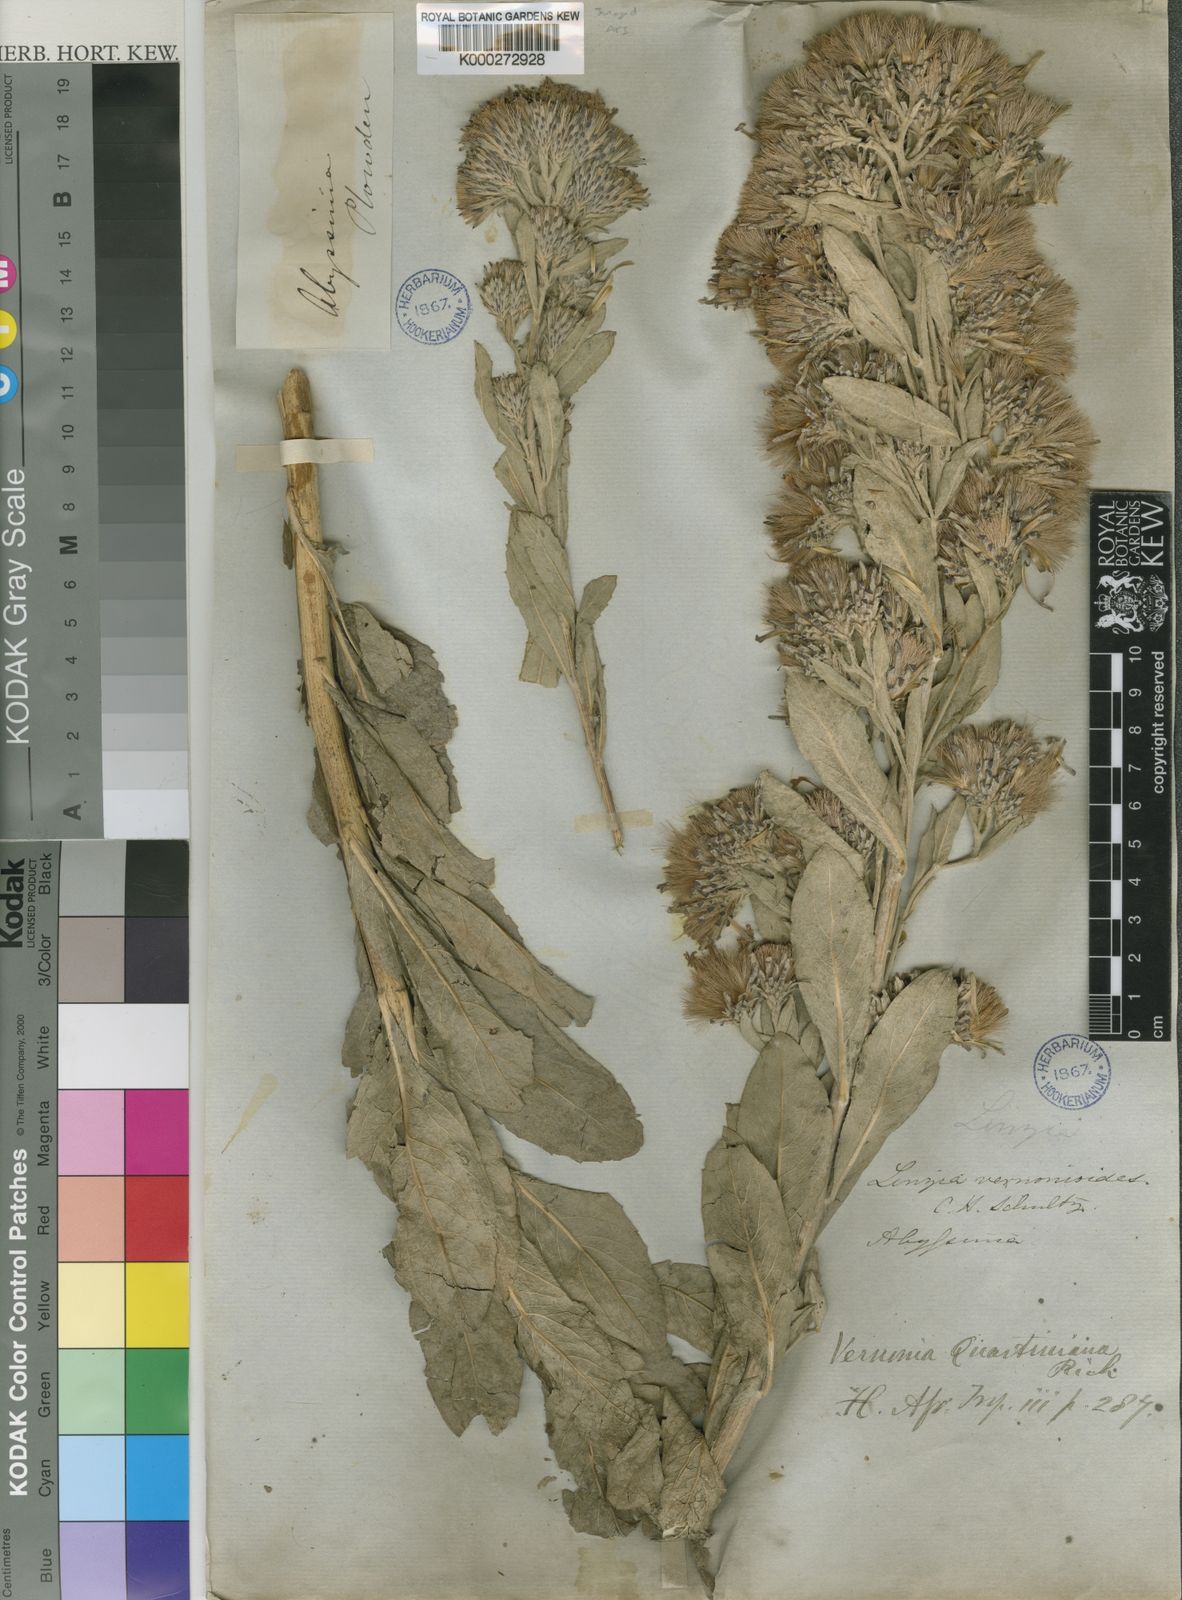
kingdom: Plantae
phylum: Tracheophyta
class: Magnoliopsida
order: Asterales
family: Asteraceae
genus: Vernonia
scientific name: Vernonia congolensis
